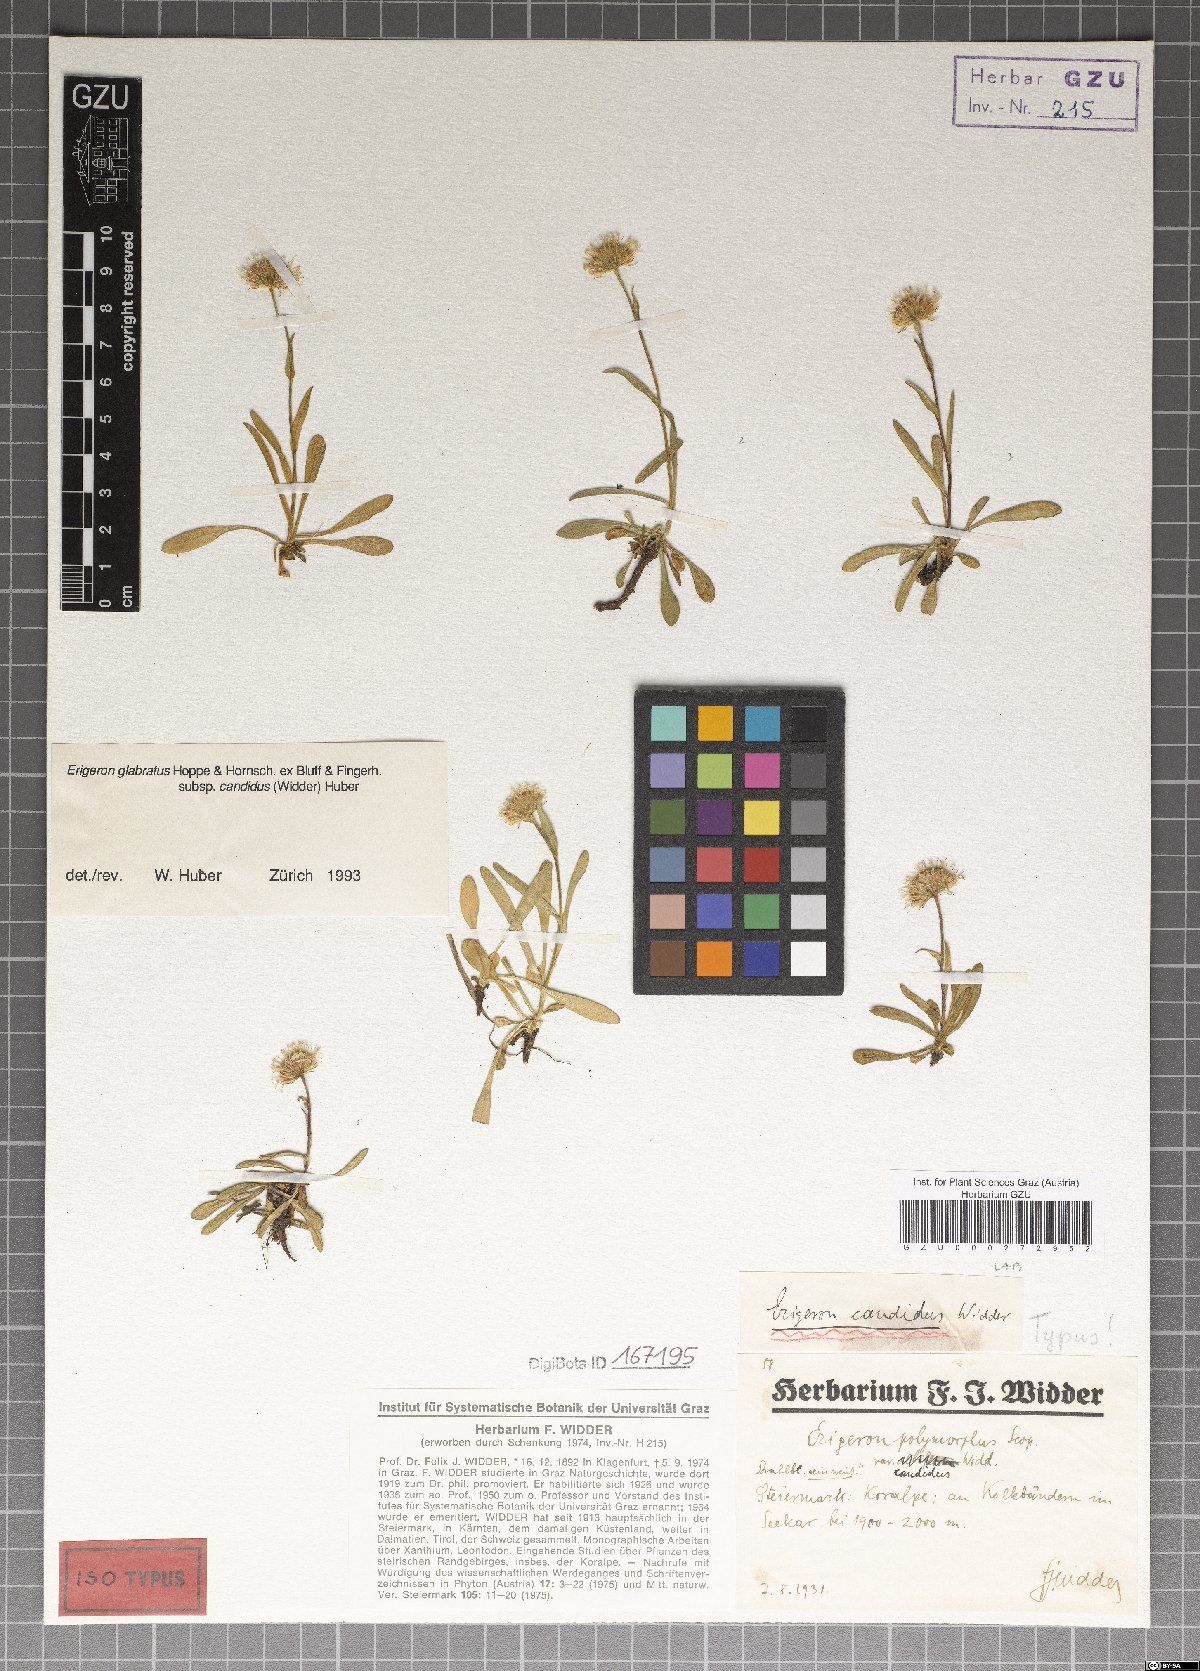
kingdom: Plantae
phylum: Tracheophyta
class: Magnoliopsida
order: Asterales
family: Asteraceae
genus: Erigeron
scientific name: Erigeron glabratus
